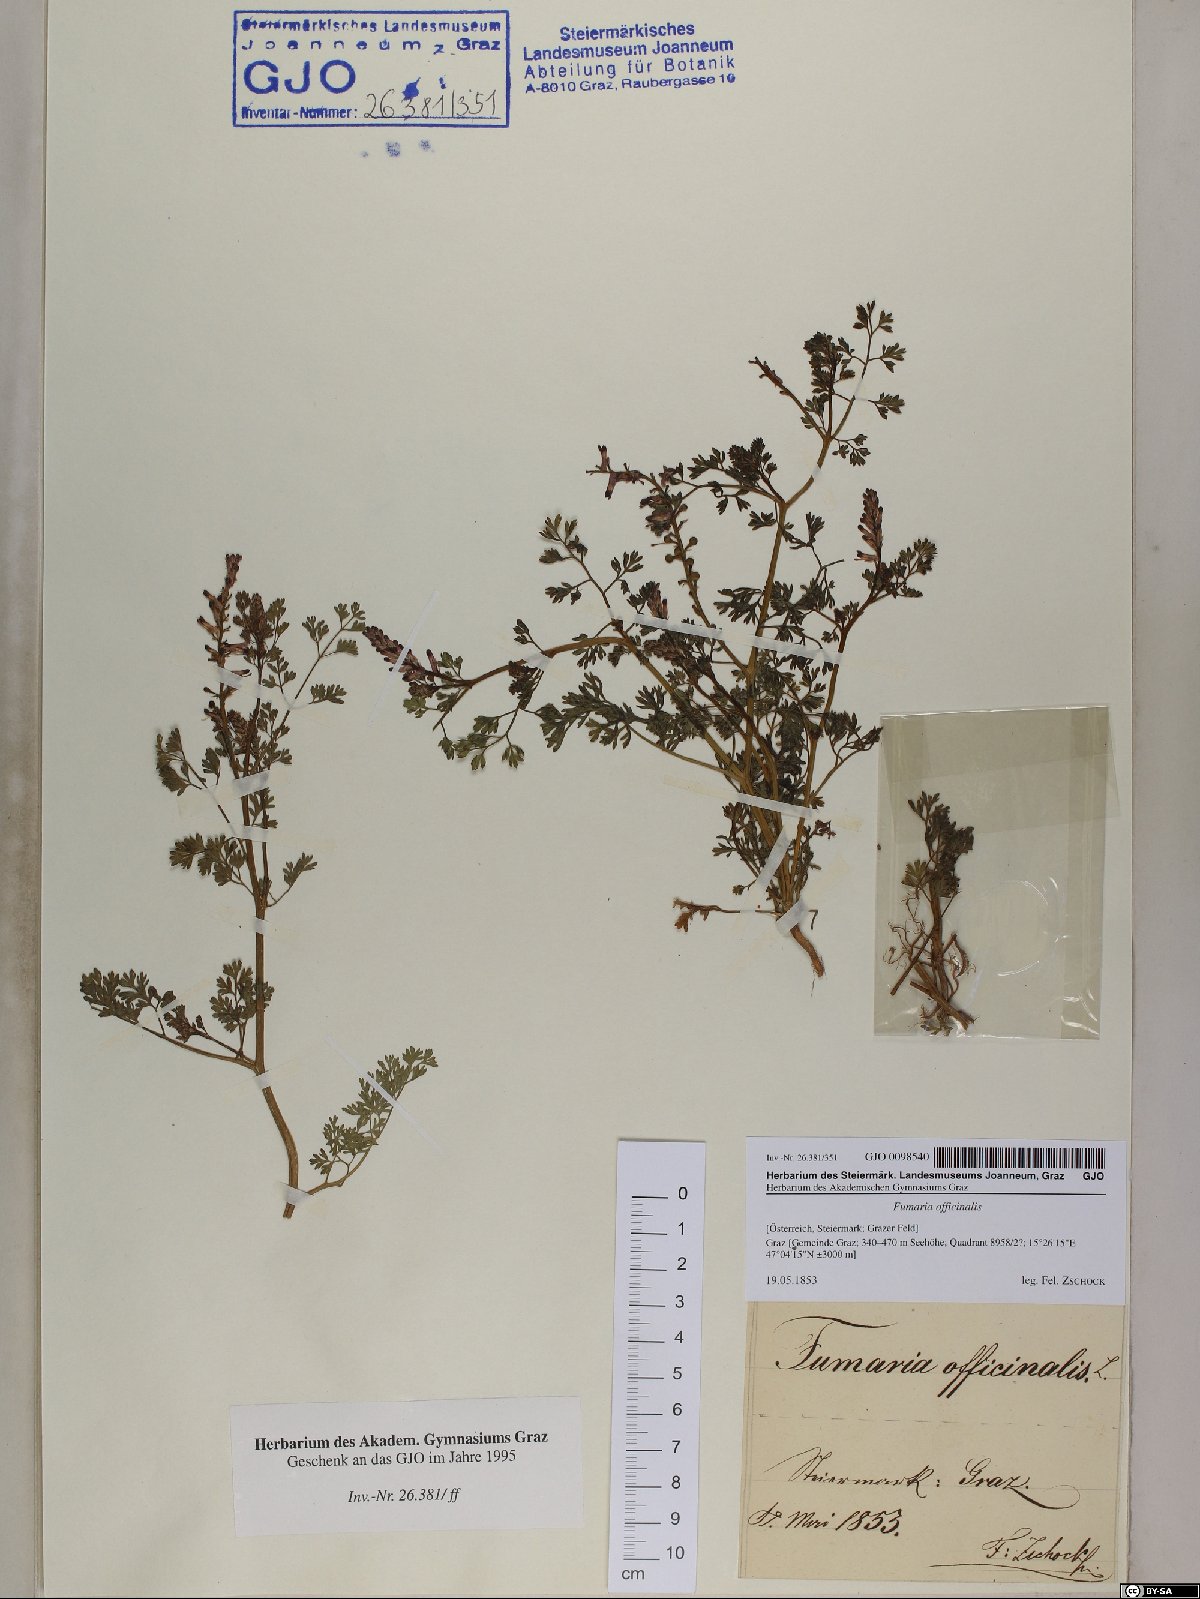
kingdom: Plantae
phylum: Tracheophyta
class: Magnoliopsida
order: Ranunculales
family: Papaveraceae
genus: Fumaria
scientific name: Fumaria officinalis
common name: Common fumitory
